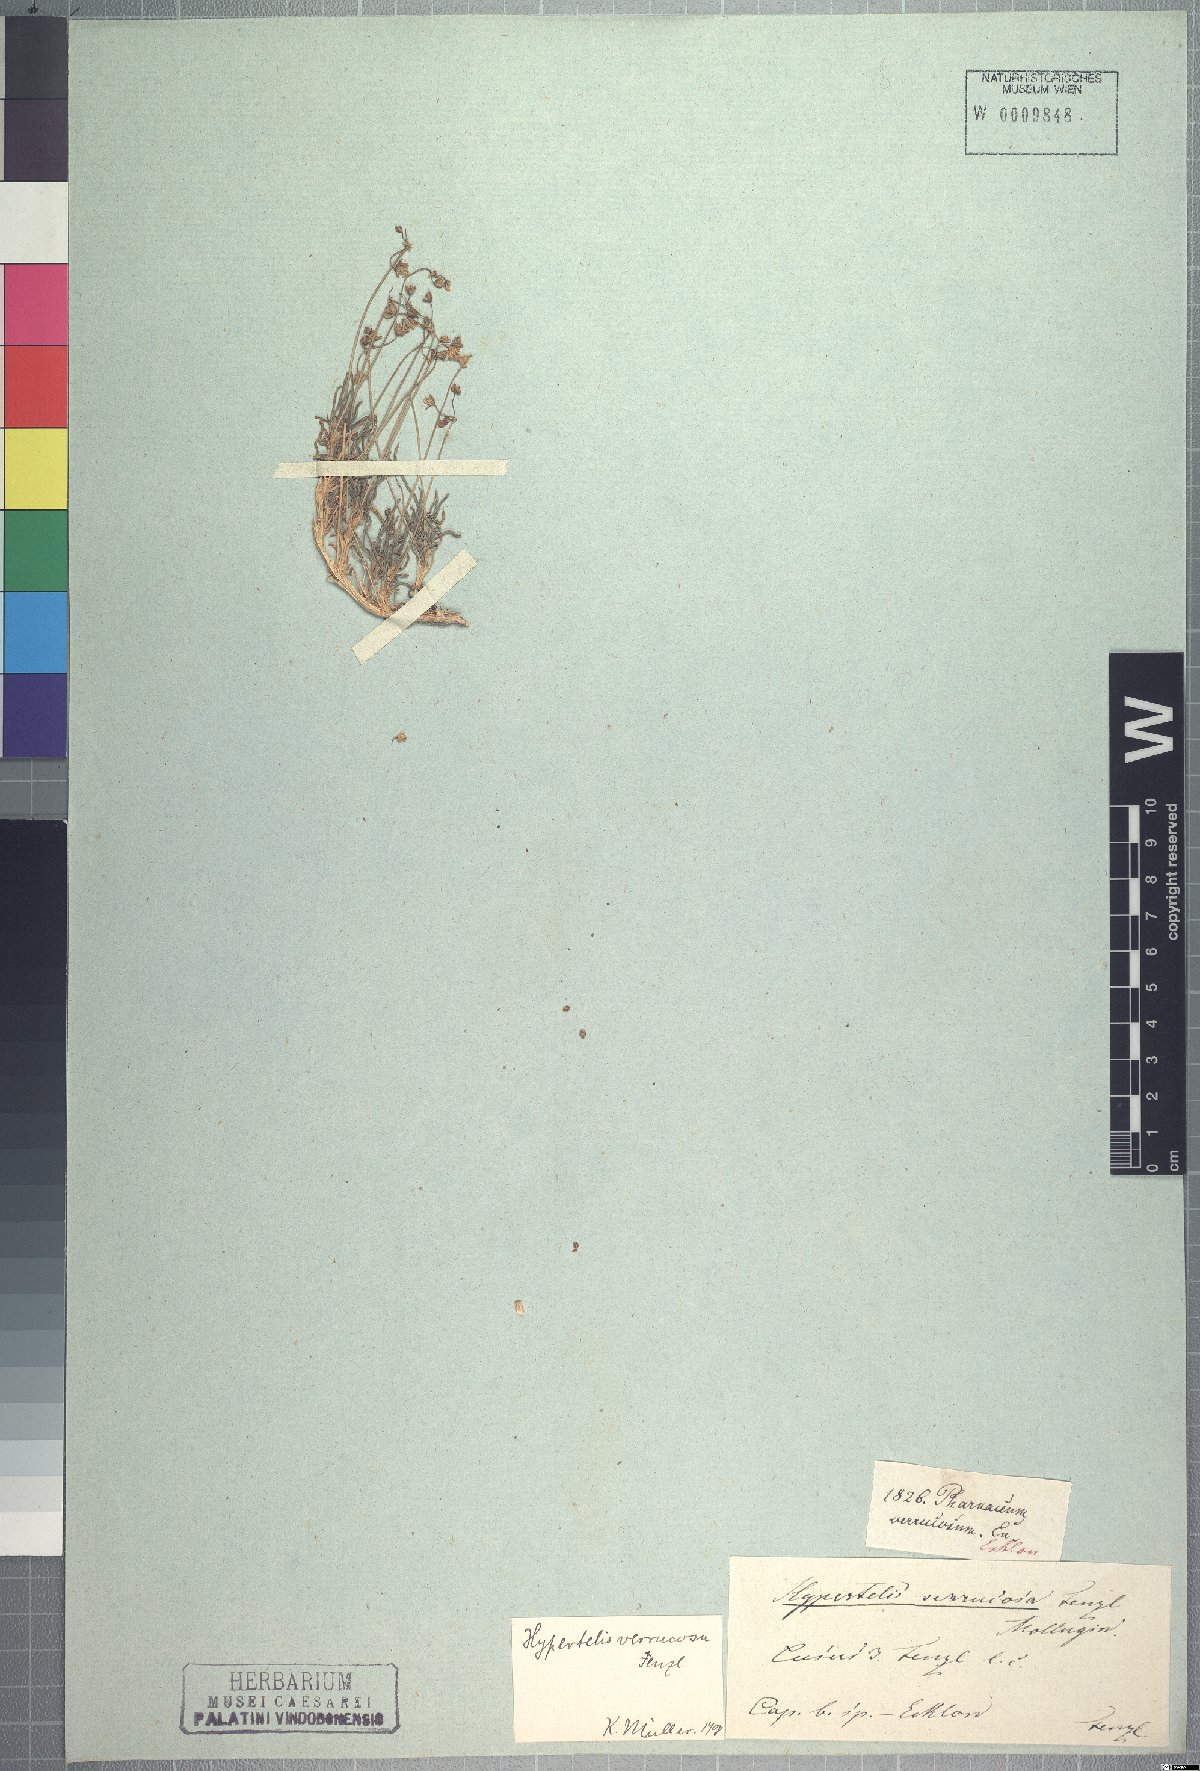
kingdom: Plantae
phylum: Tracheophyta
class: Magnoliopsida
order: Caryophyllales
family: Kewaceae
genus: Kewa
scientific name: Kewa salsoloides
